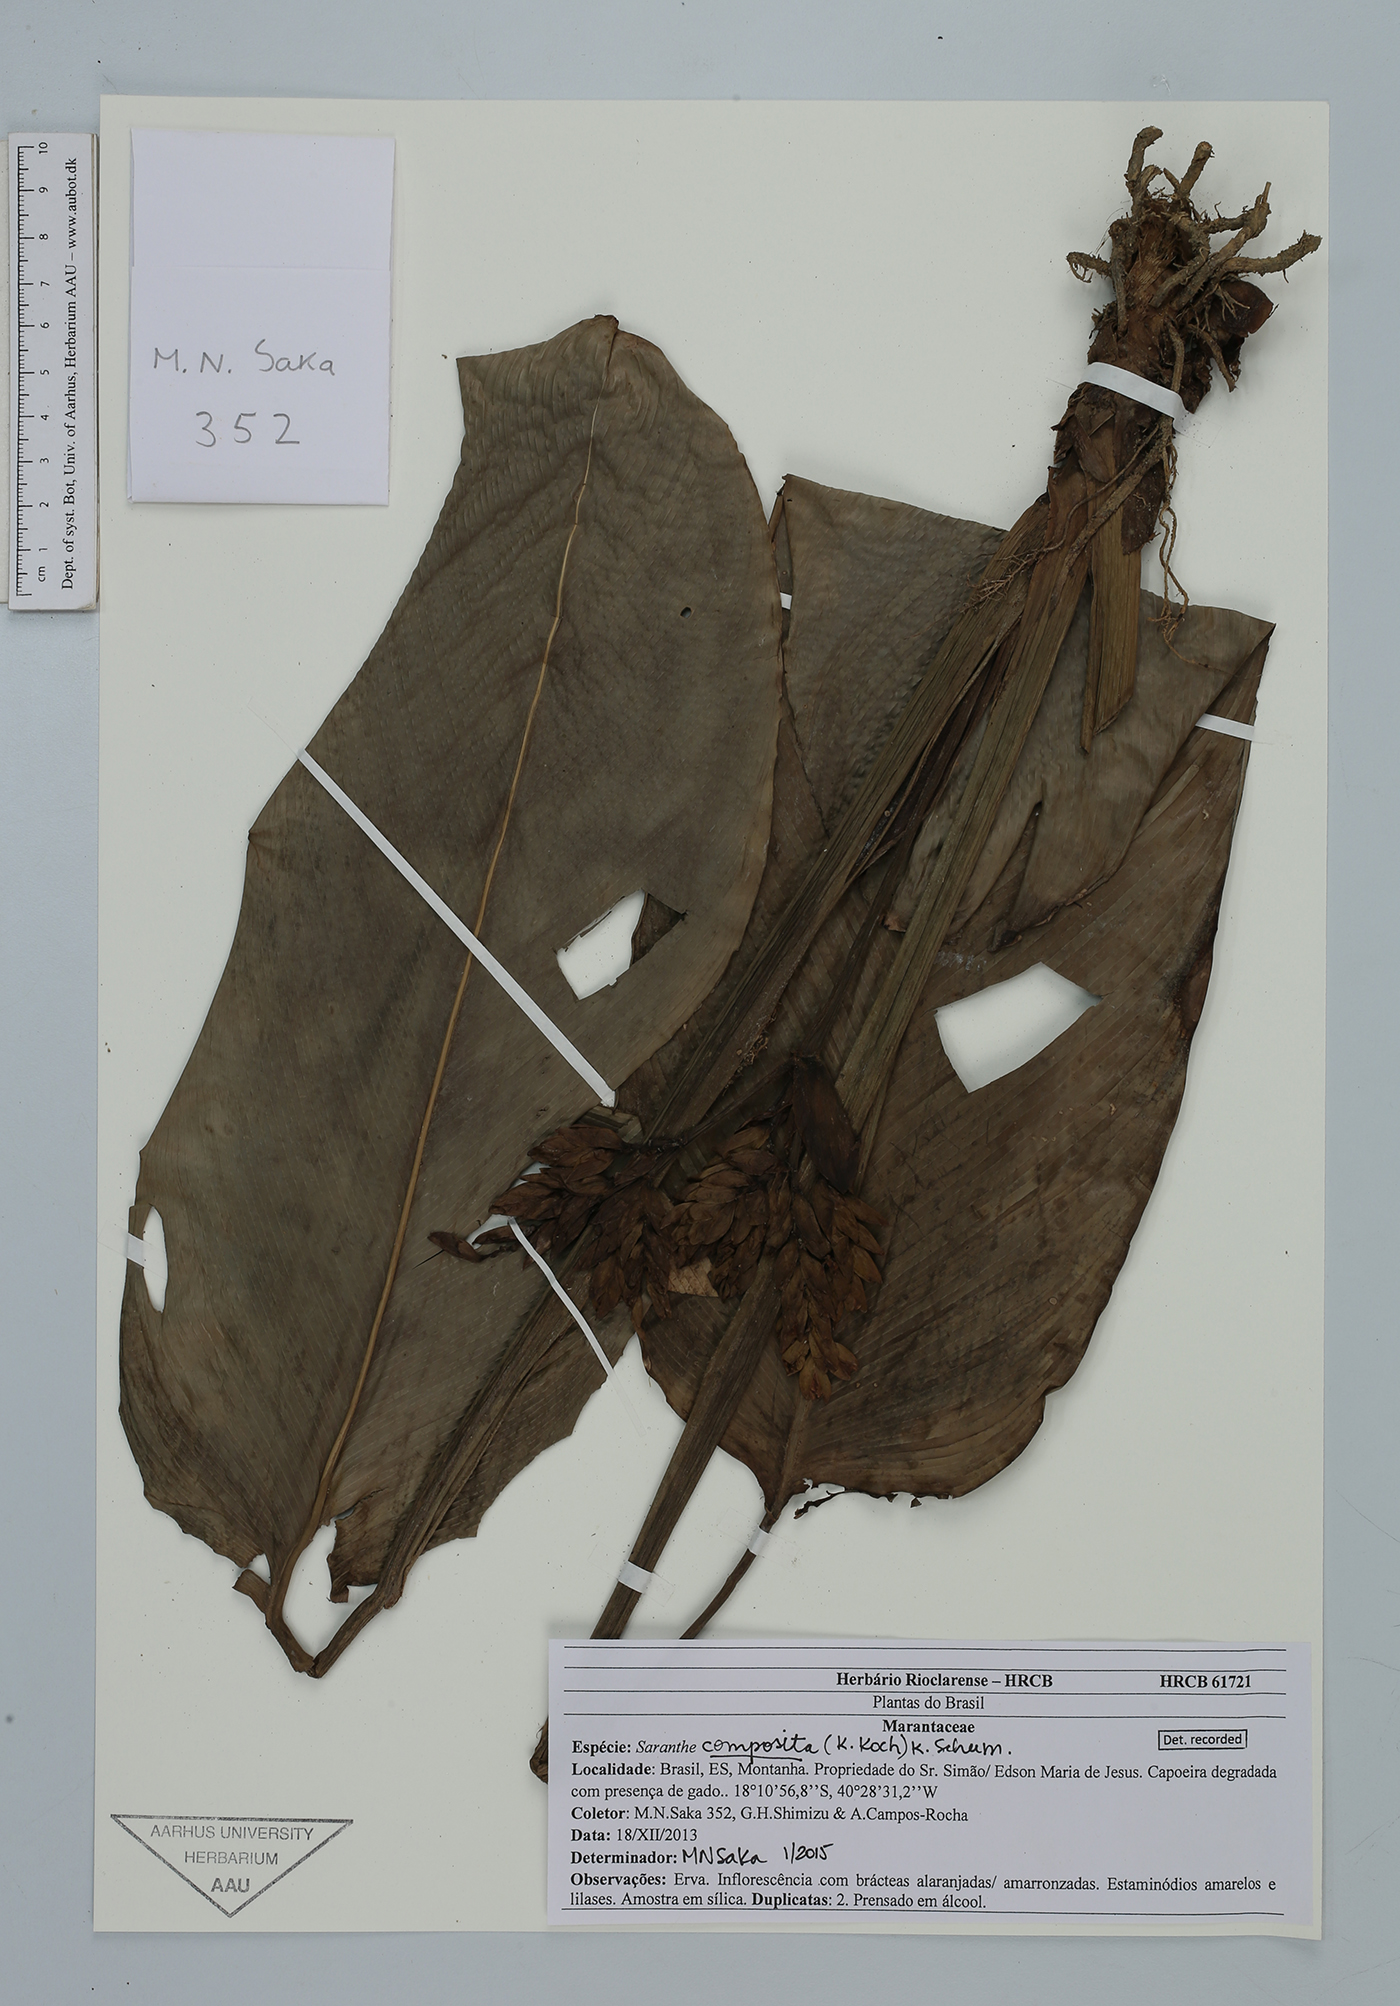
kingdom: Plantae
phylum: Tracheophyta
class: Liliopsida
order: Zingiberales
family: Marantaceae
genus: Saranthe
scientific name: Saranthe composita
